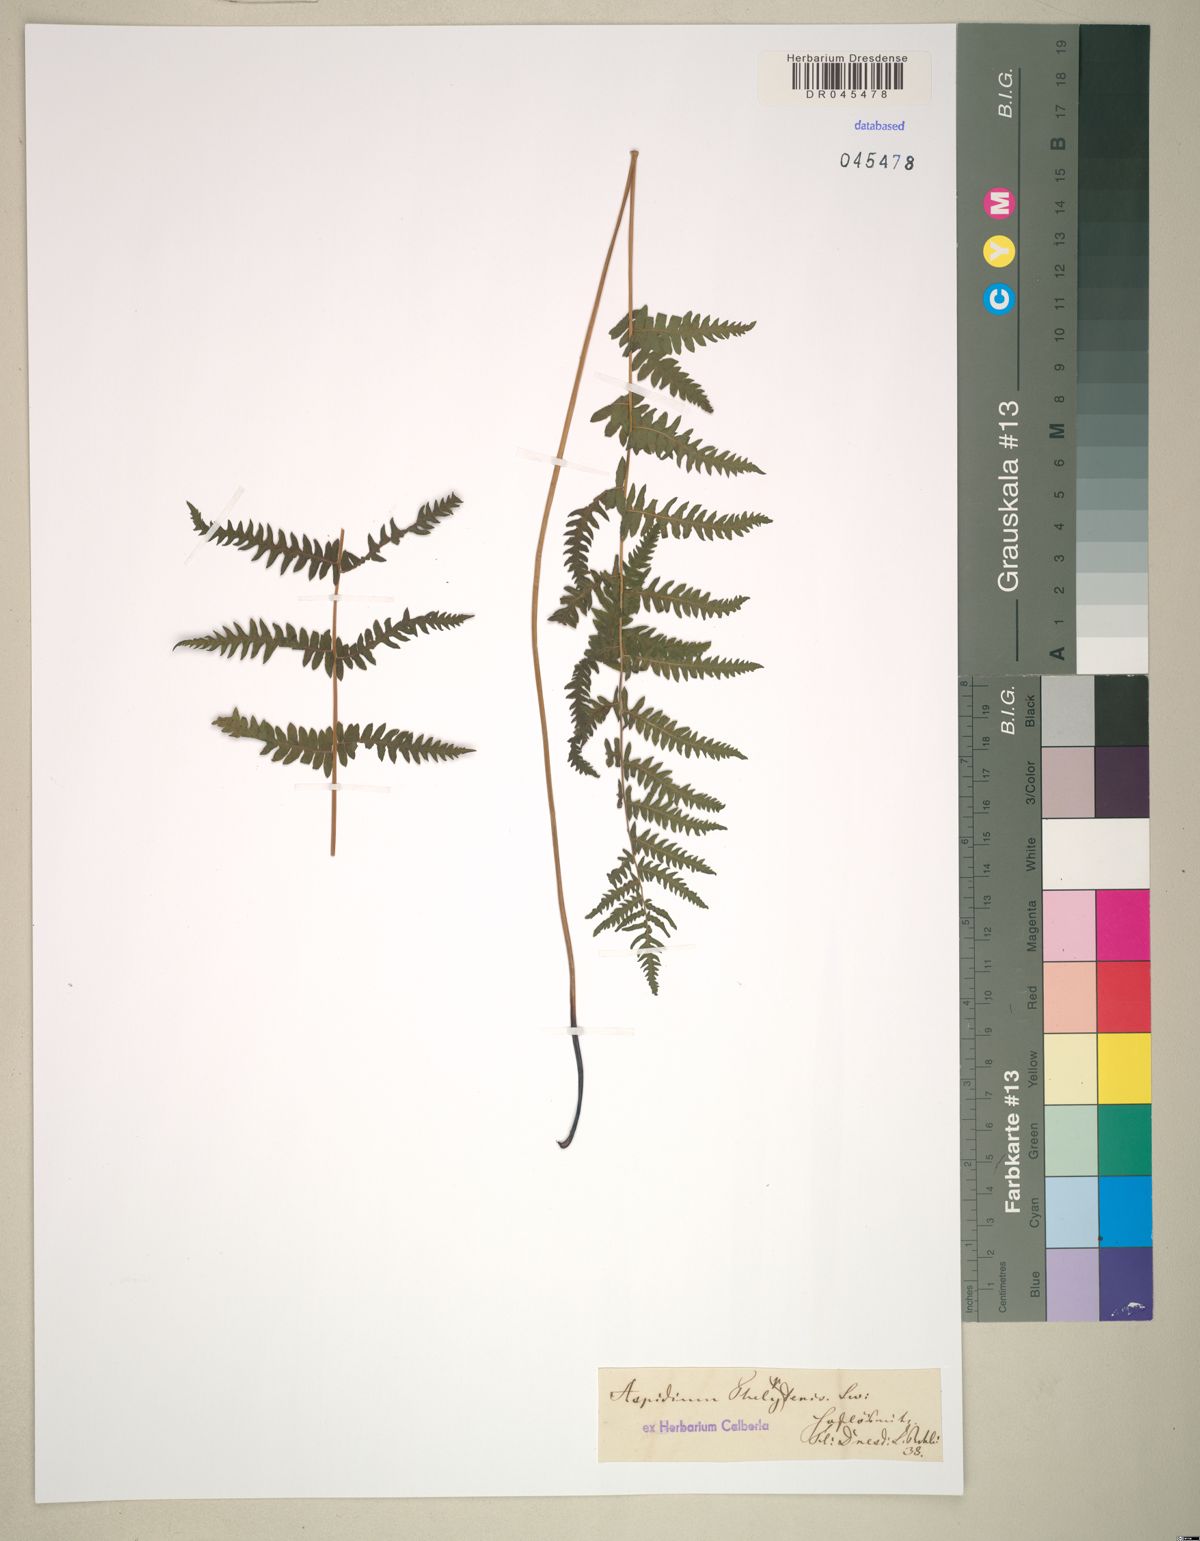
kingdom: Plantae
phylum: Tracheophyta
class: Polypodiopsida
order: Polypodiales
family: Thelypteridaceae
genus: Thelypteris
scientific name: Thelypteris palustris
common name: Marsh fern
